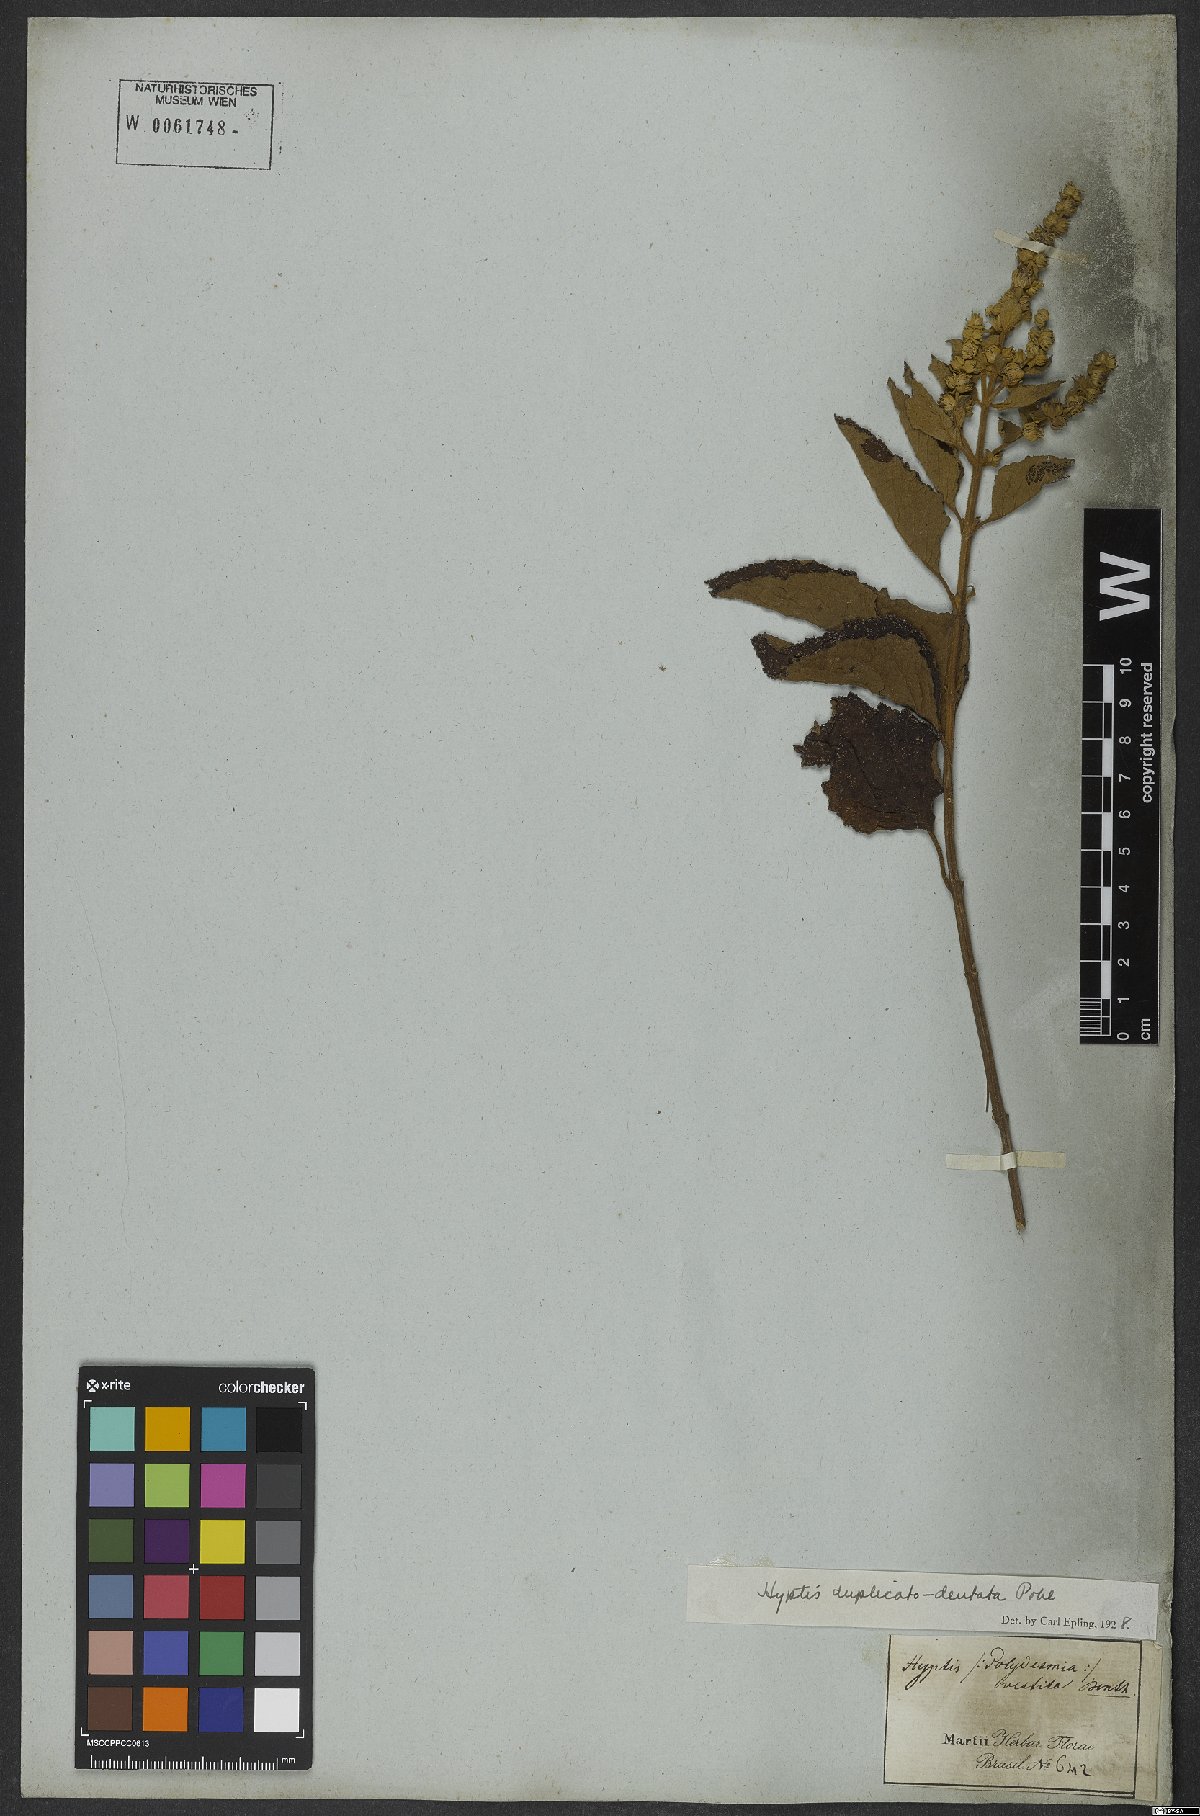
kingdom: Plantae
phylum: Tracheophyta
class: Magnoliopsida
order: Lamiales
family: Lamiaceae
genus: Cantinoa
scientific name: Cantinoa duplicatodentata
